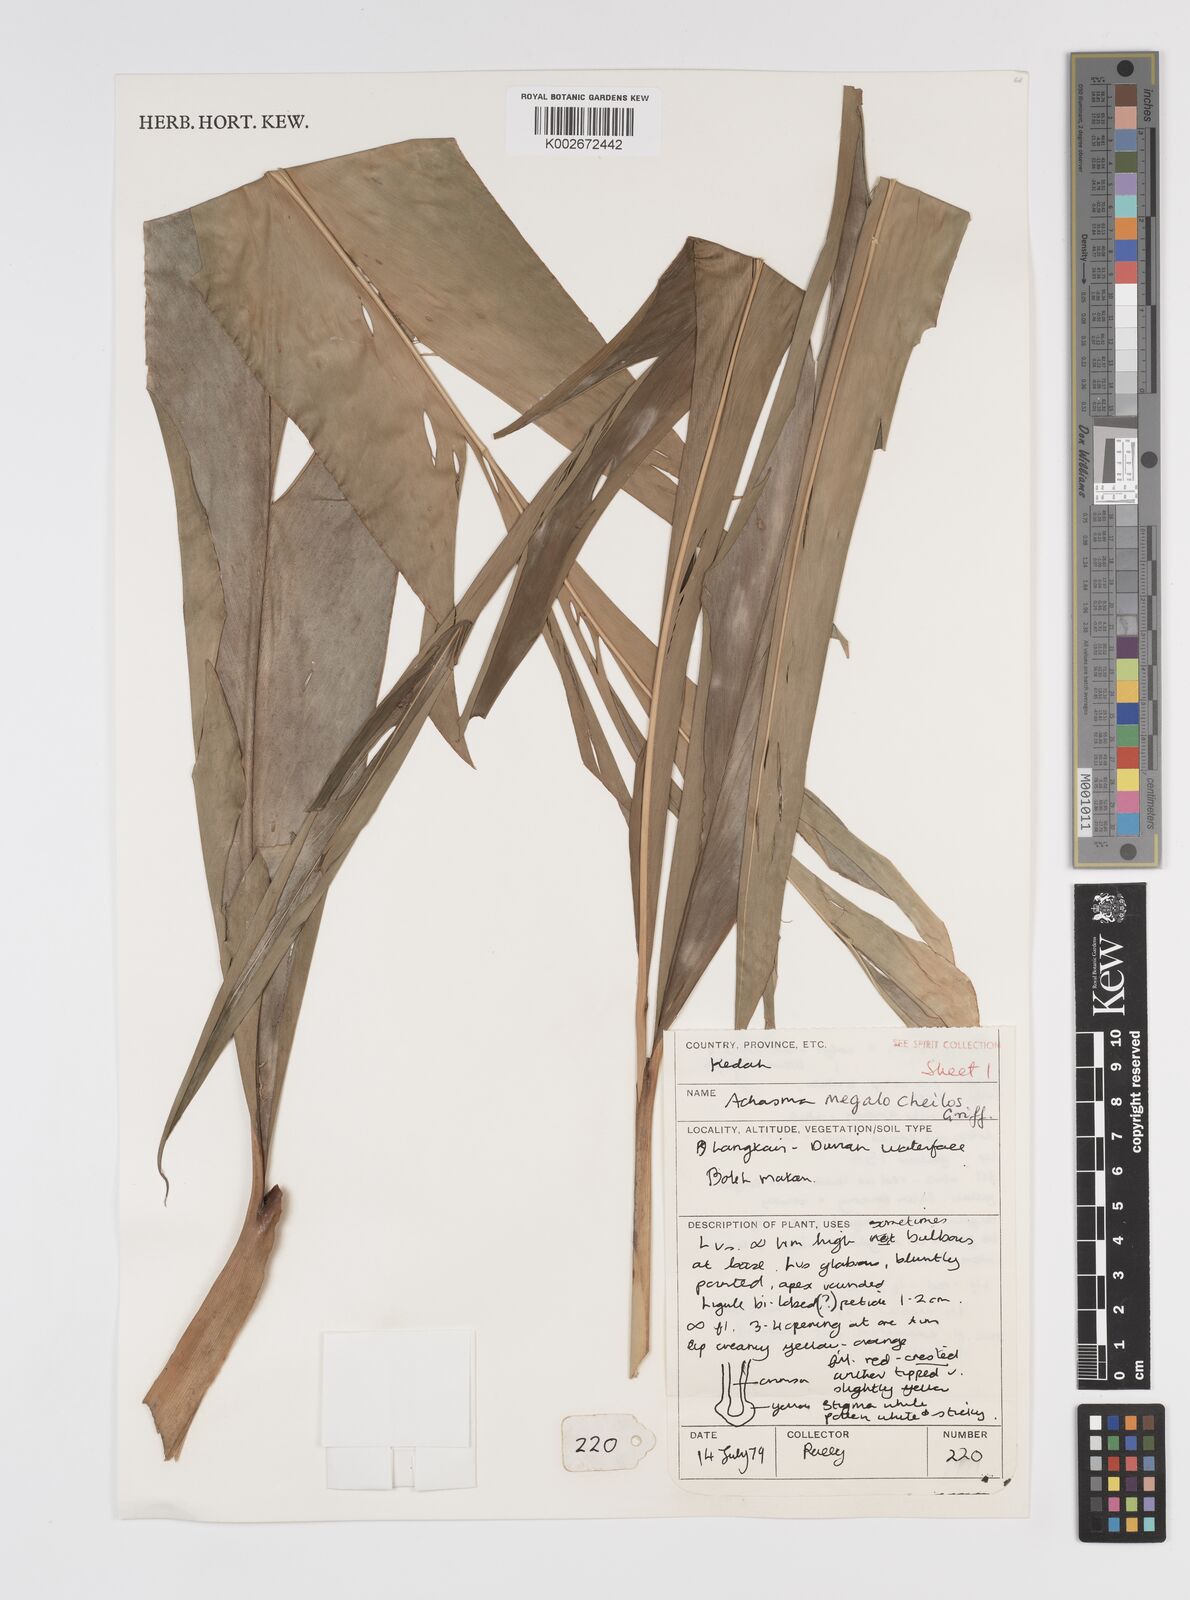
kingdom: Plantae
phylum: Tracheophyta
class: Liliopsida
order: Zingiberales
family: Zingiberaceae
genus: Etlingera
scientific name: Etlingera littoralis
